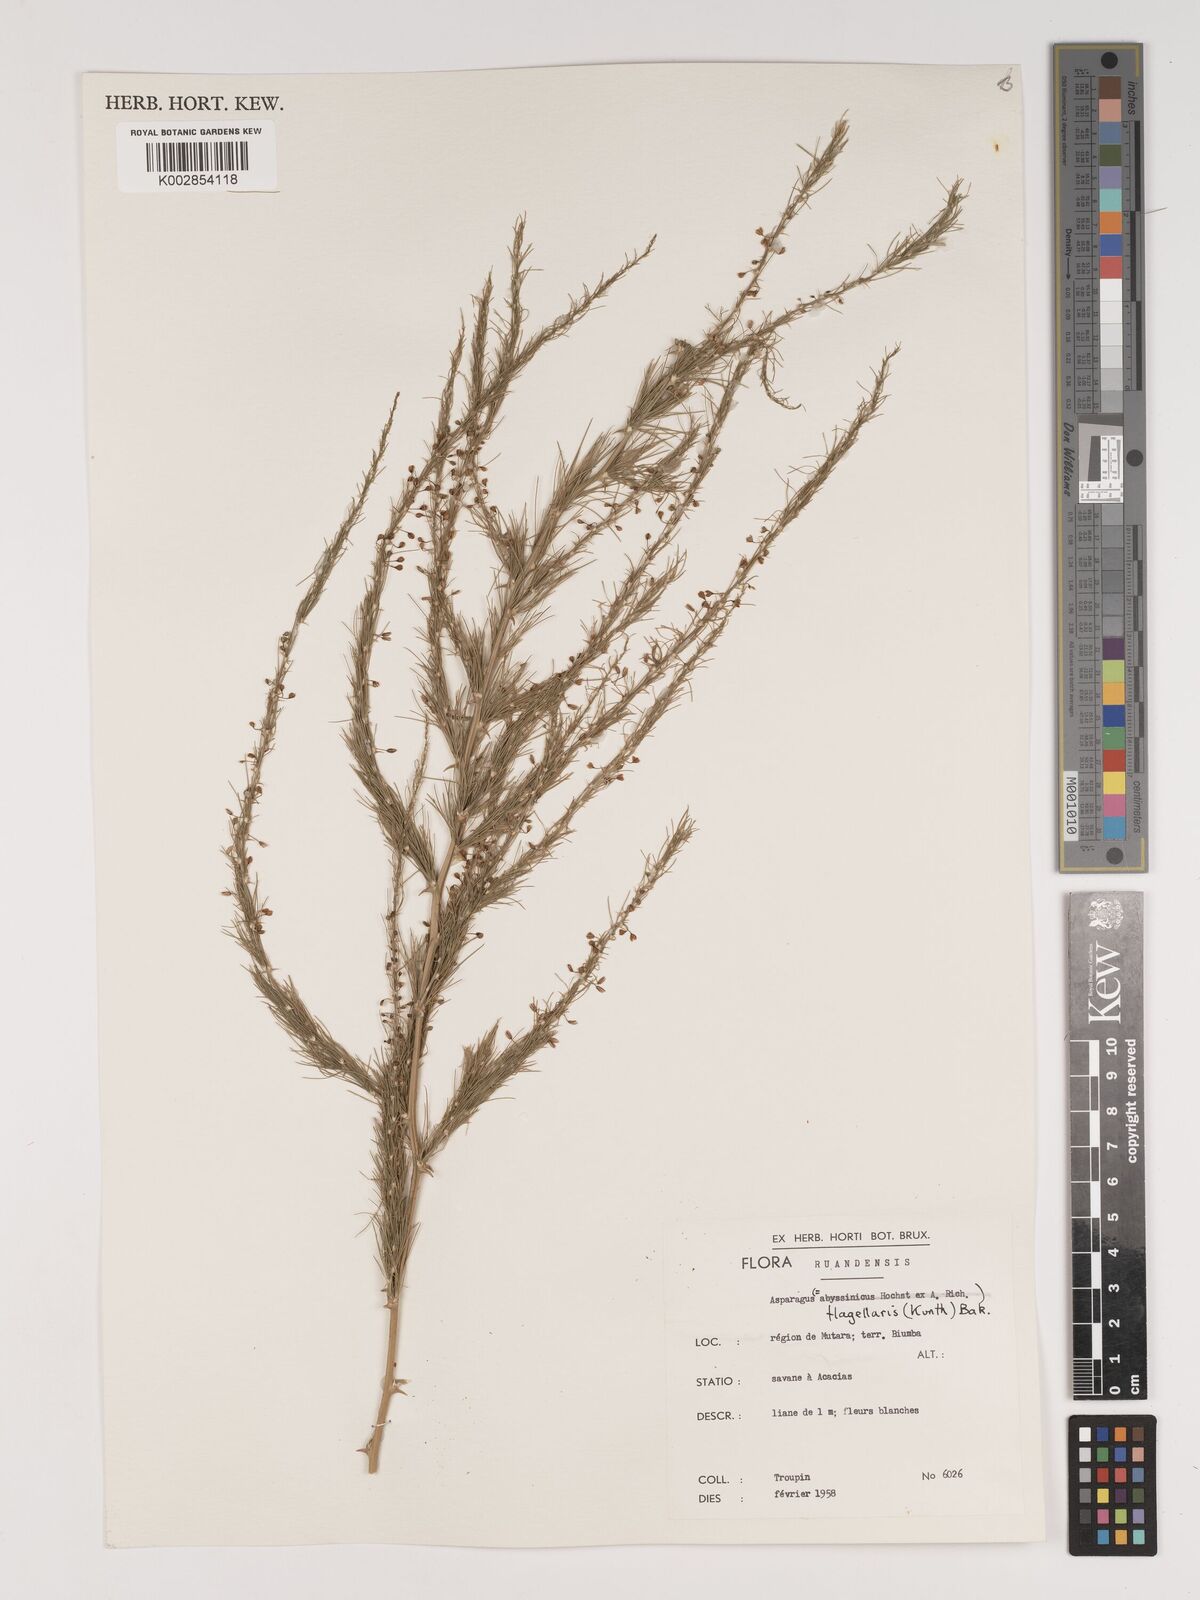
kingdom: Plantae
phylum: Tracheophyta
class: Liliopsida
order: Asparagales
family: Asparagaceae
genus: Asparagus
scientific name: Asparagus flagellaris
